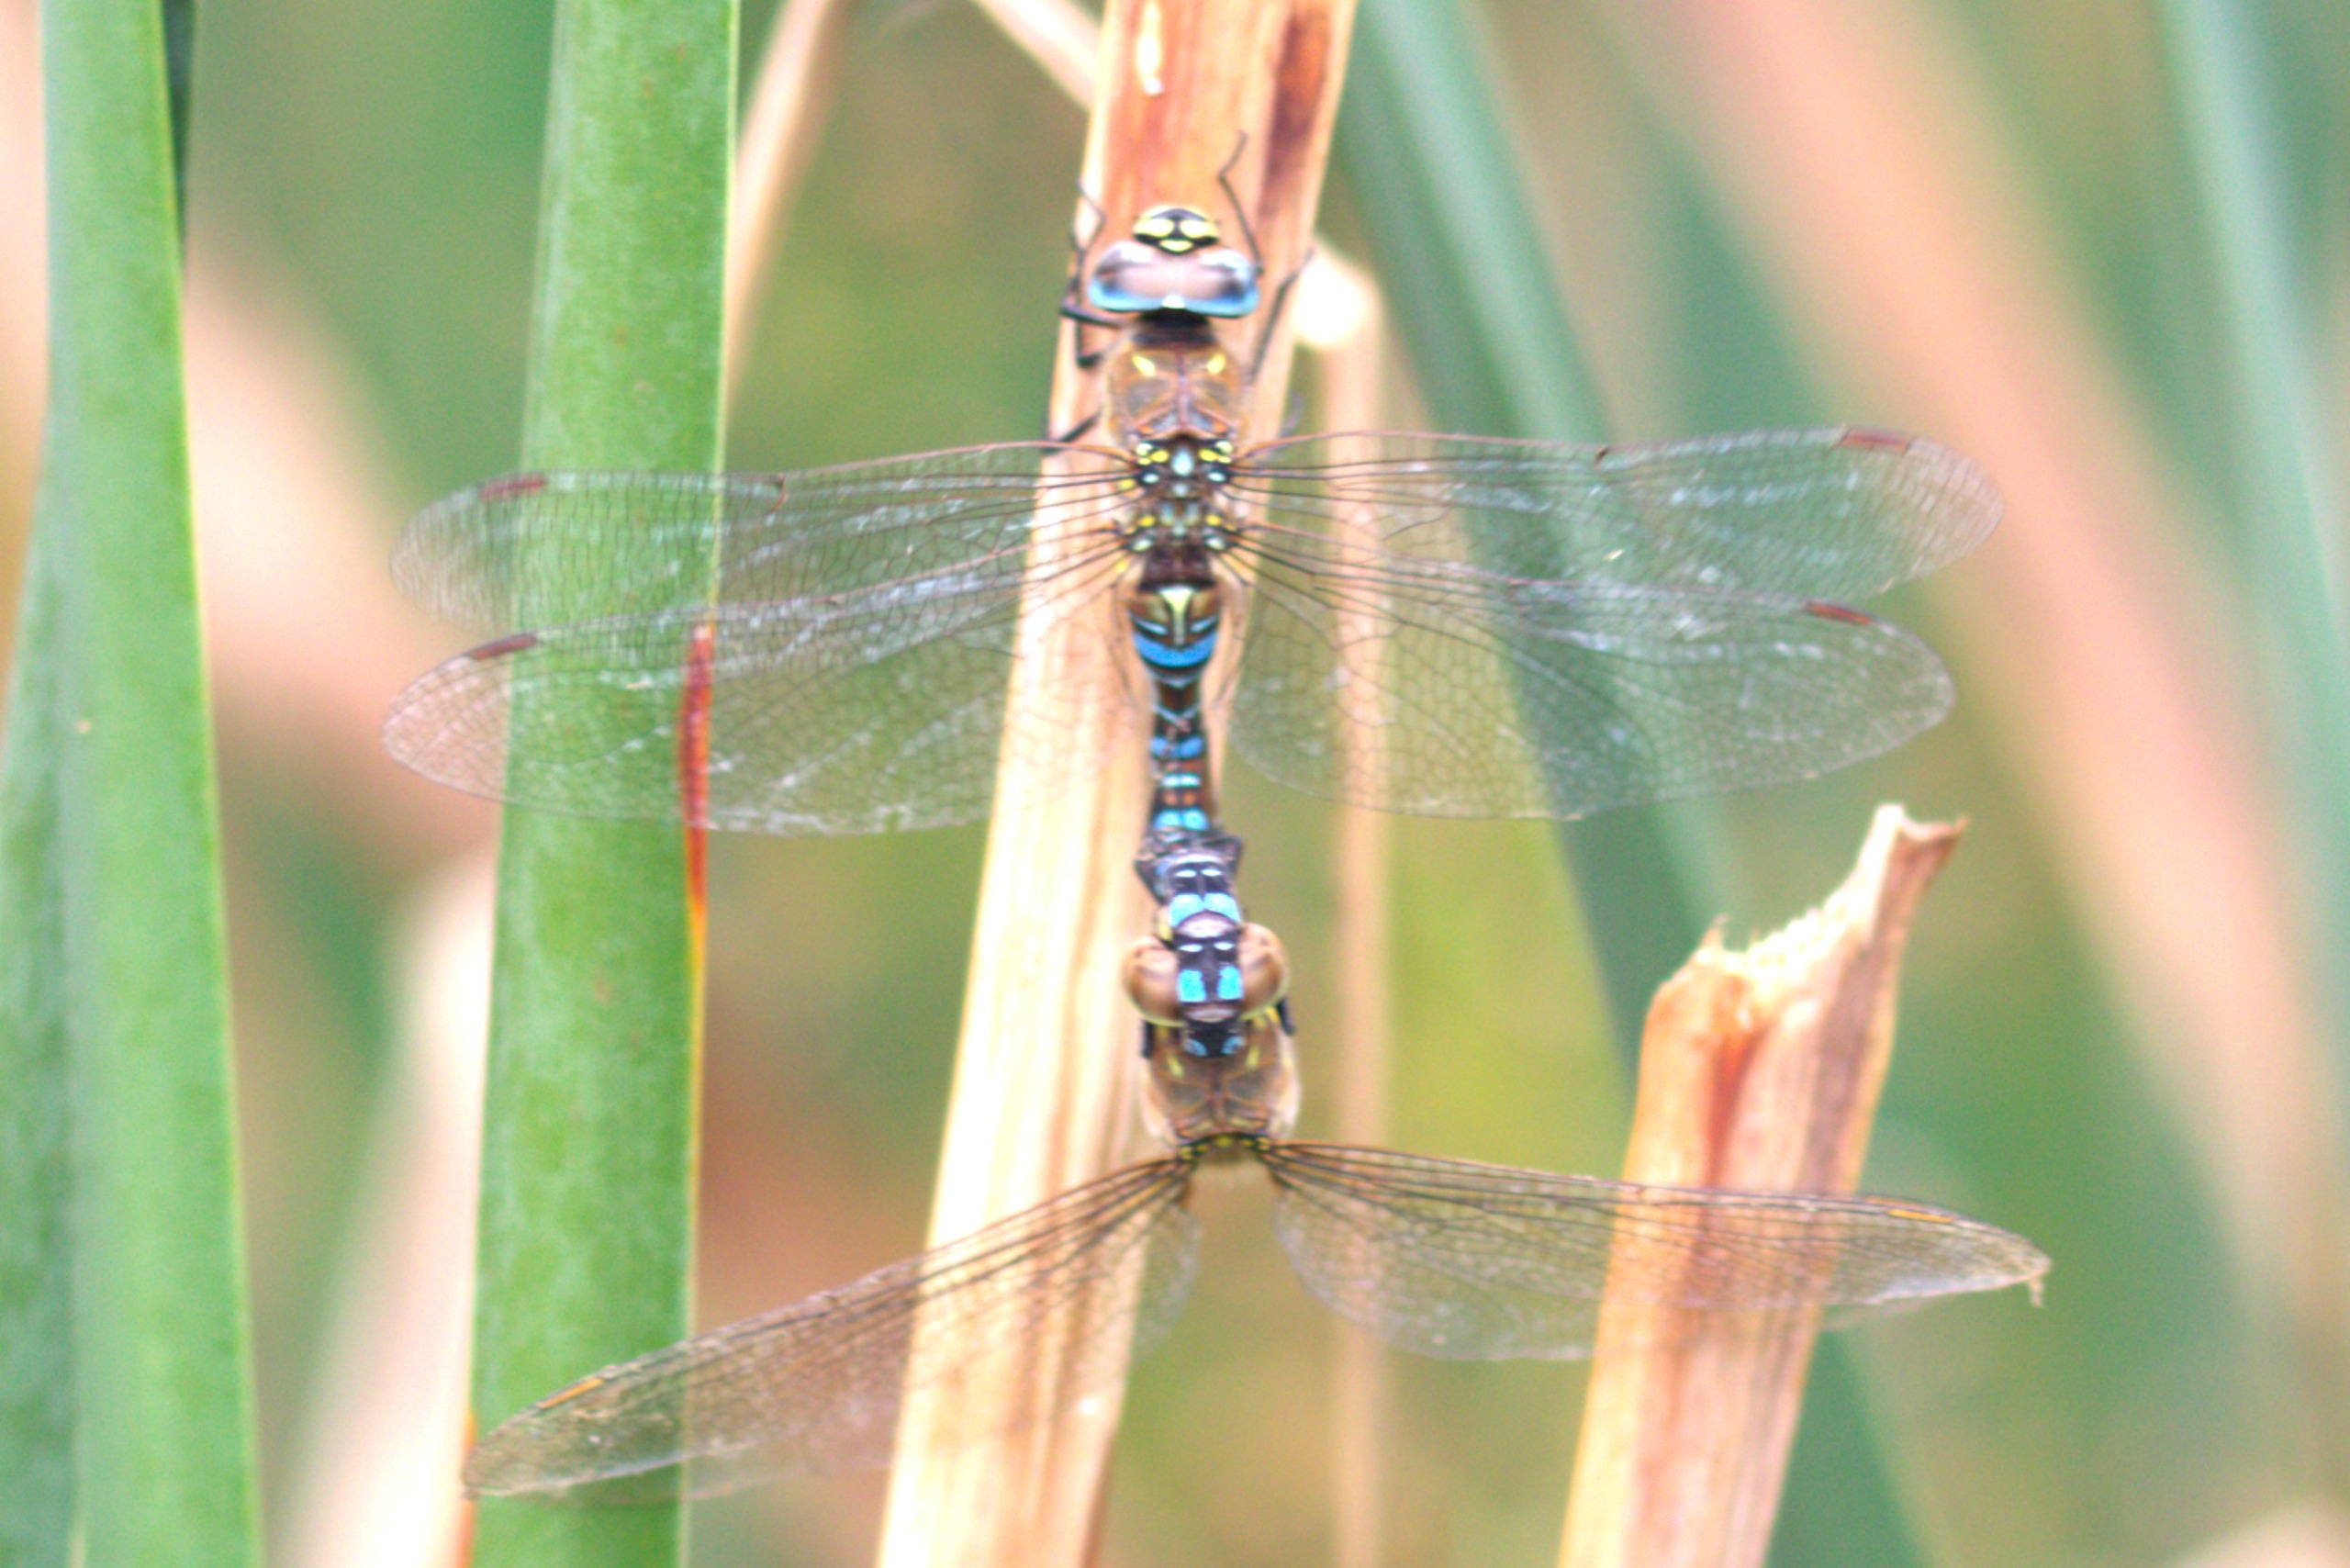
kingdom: Animalia
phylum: Arthropoda
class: Insecta
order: Odonata
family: Aeshnidae
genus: Aeshna
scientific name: Aeshna mixta
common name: Efterårs-mosaikguldsmed
